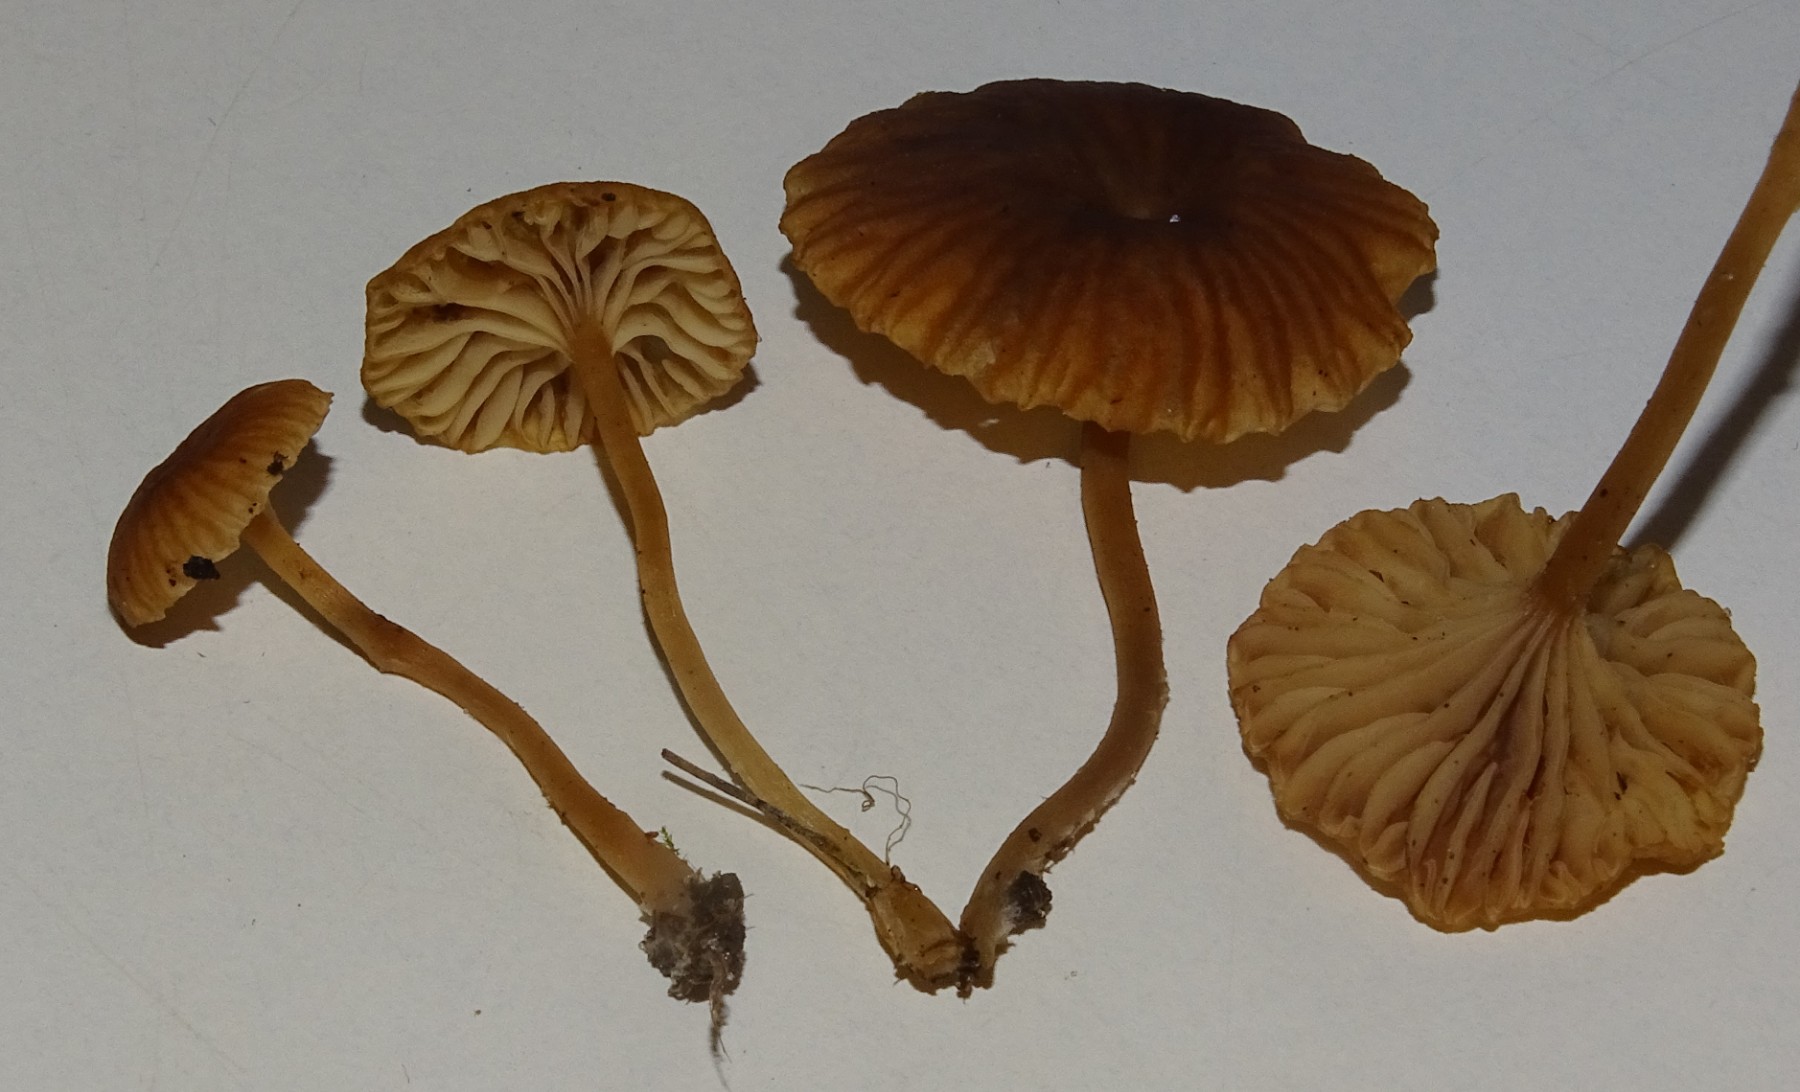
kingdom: Fungi
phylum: Basidiomycota
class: Agaricomycetes
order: Agaricales
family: Tricholomataceae
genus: Omphalina
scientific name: Omphalina pyxidata
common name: rødbrun navlehat
